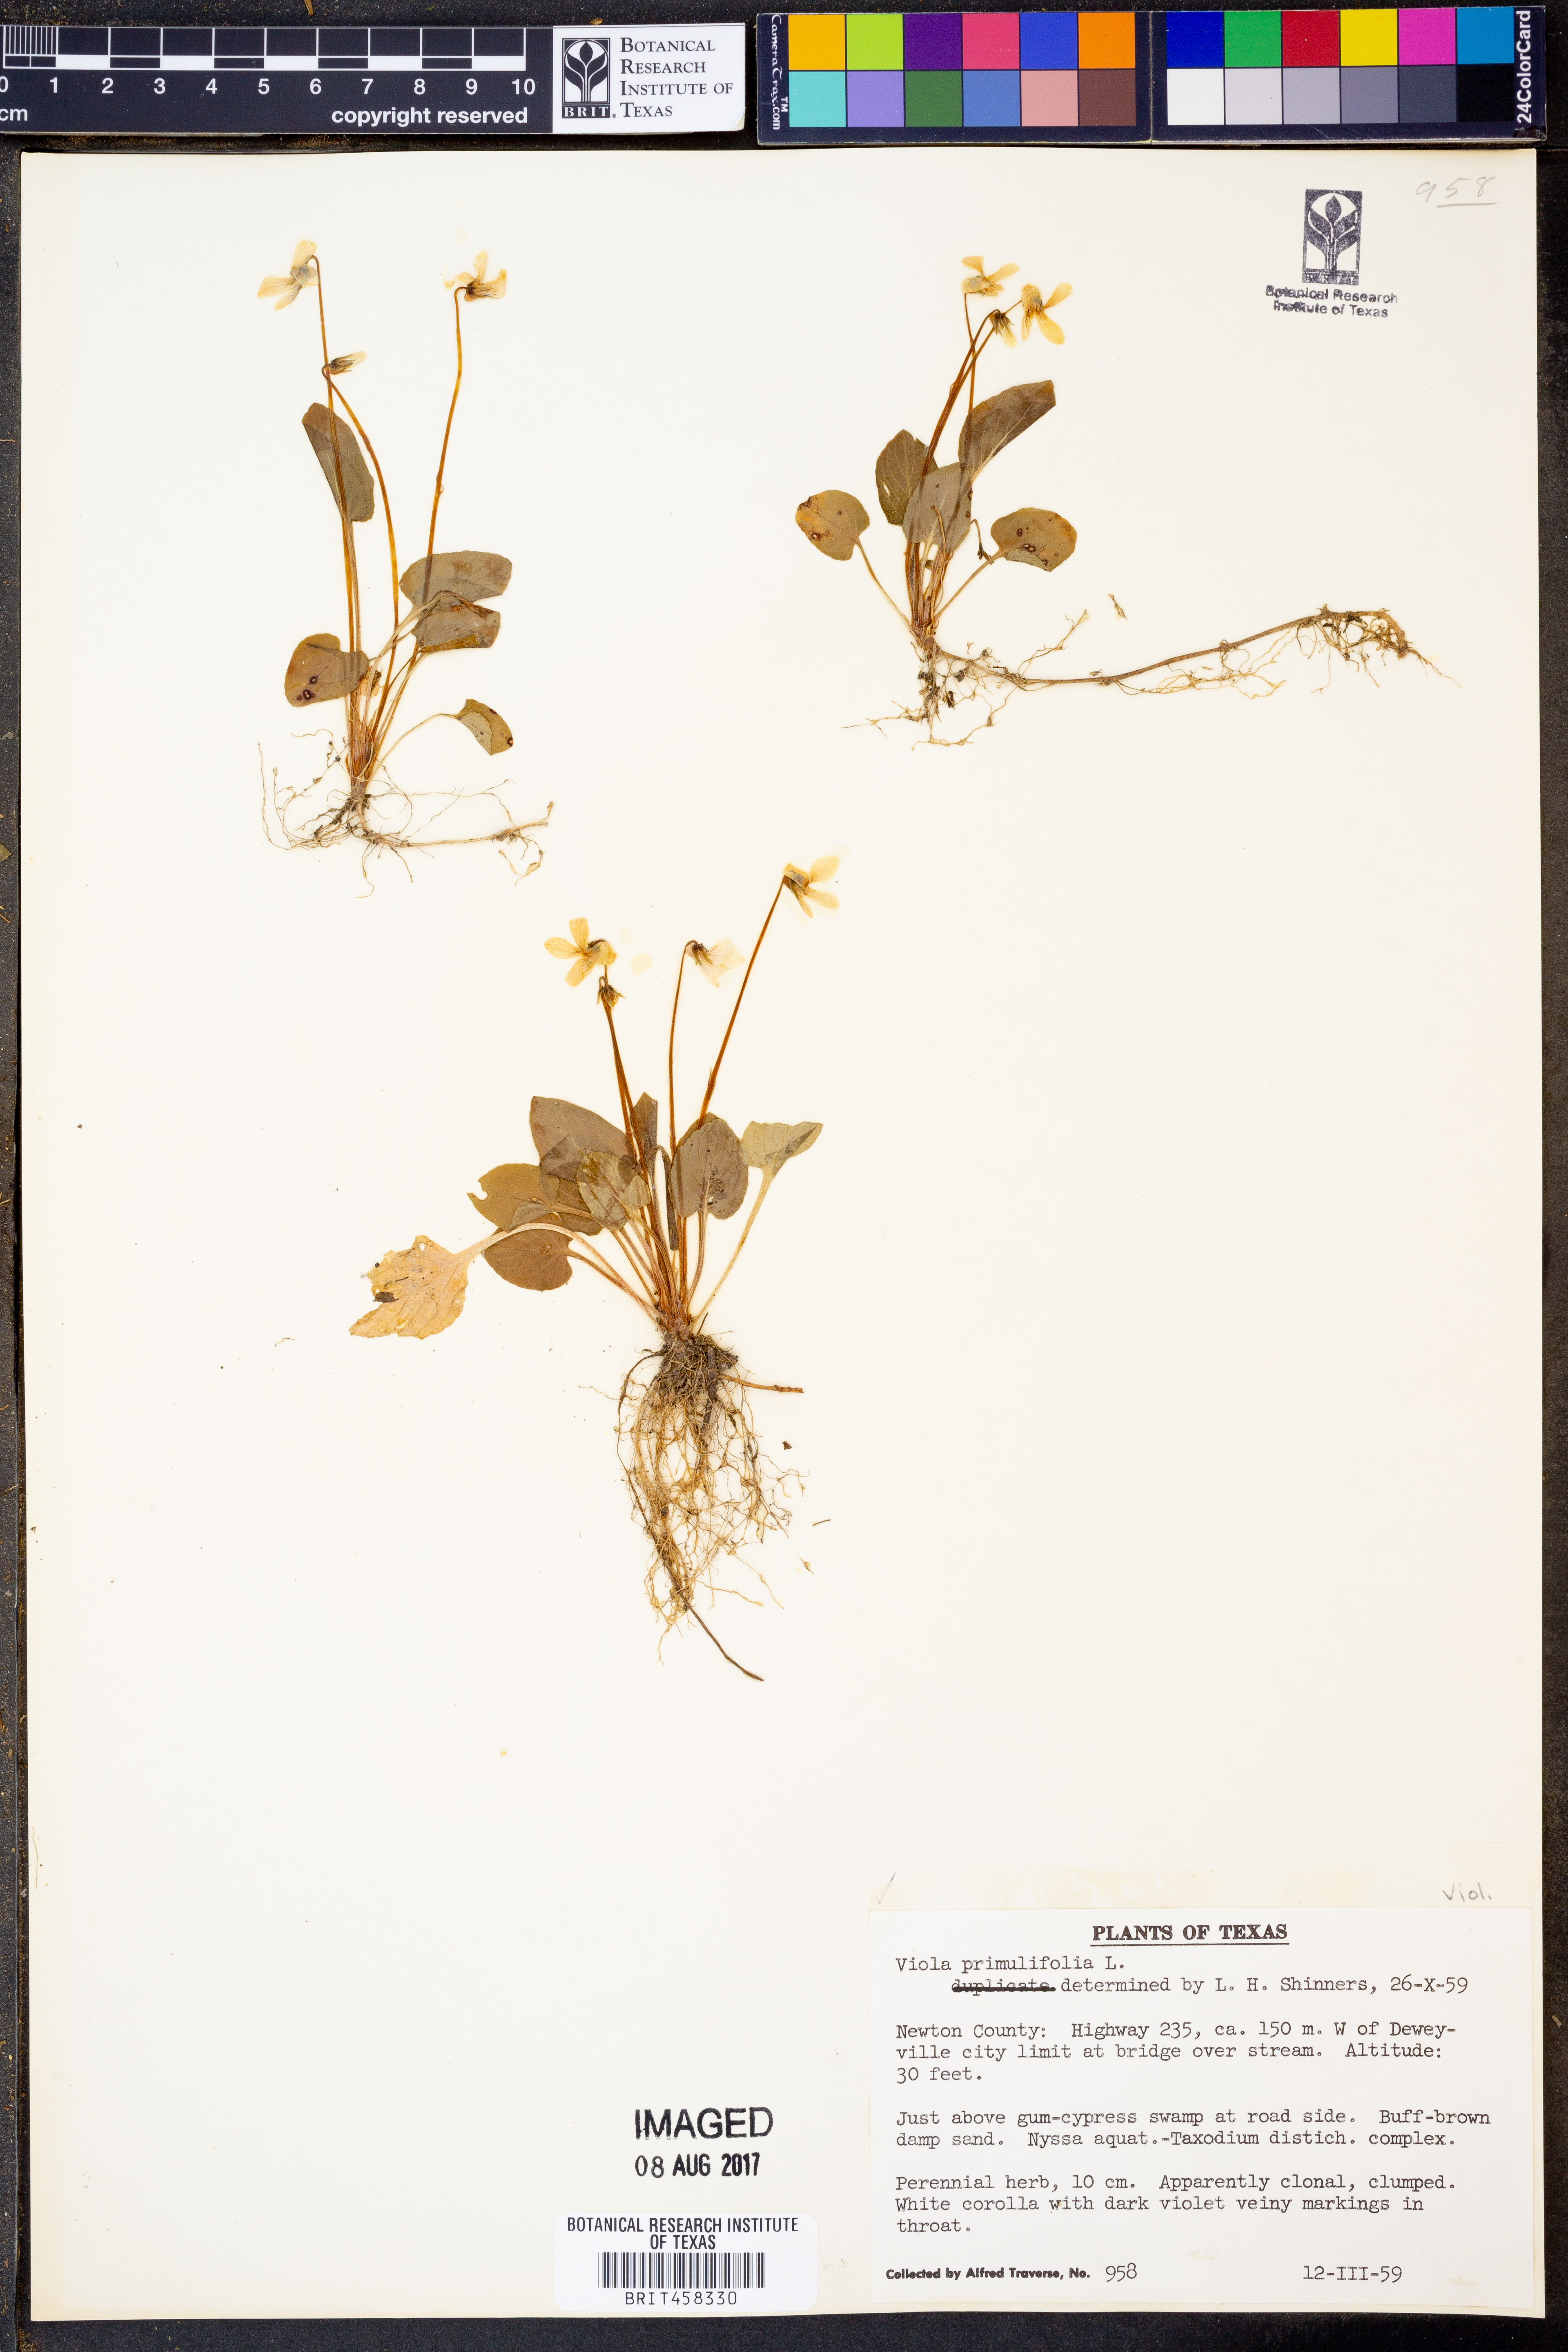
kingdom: Plantae
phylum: Tracheophyta
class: Magnoliopsida
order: Malpighiales
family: Violaceae
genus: Viola
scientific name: Viola primulifolia
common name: Primrose-leaf violet
